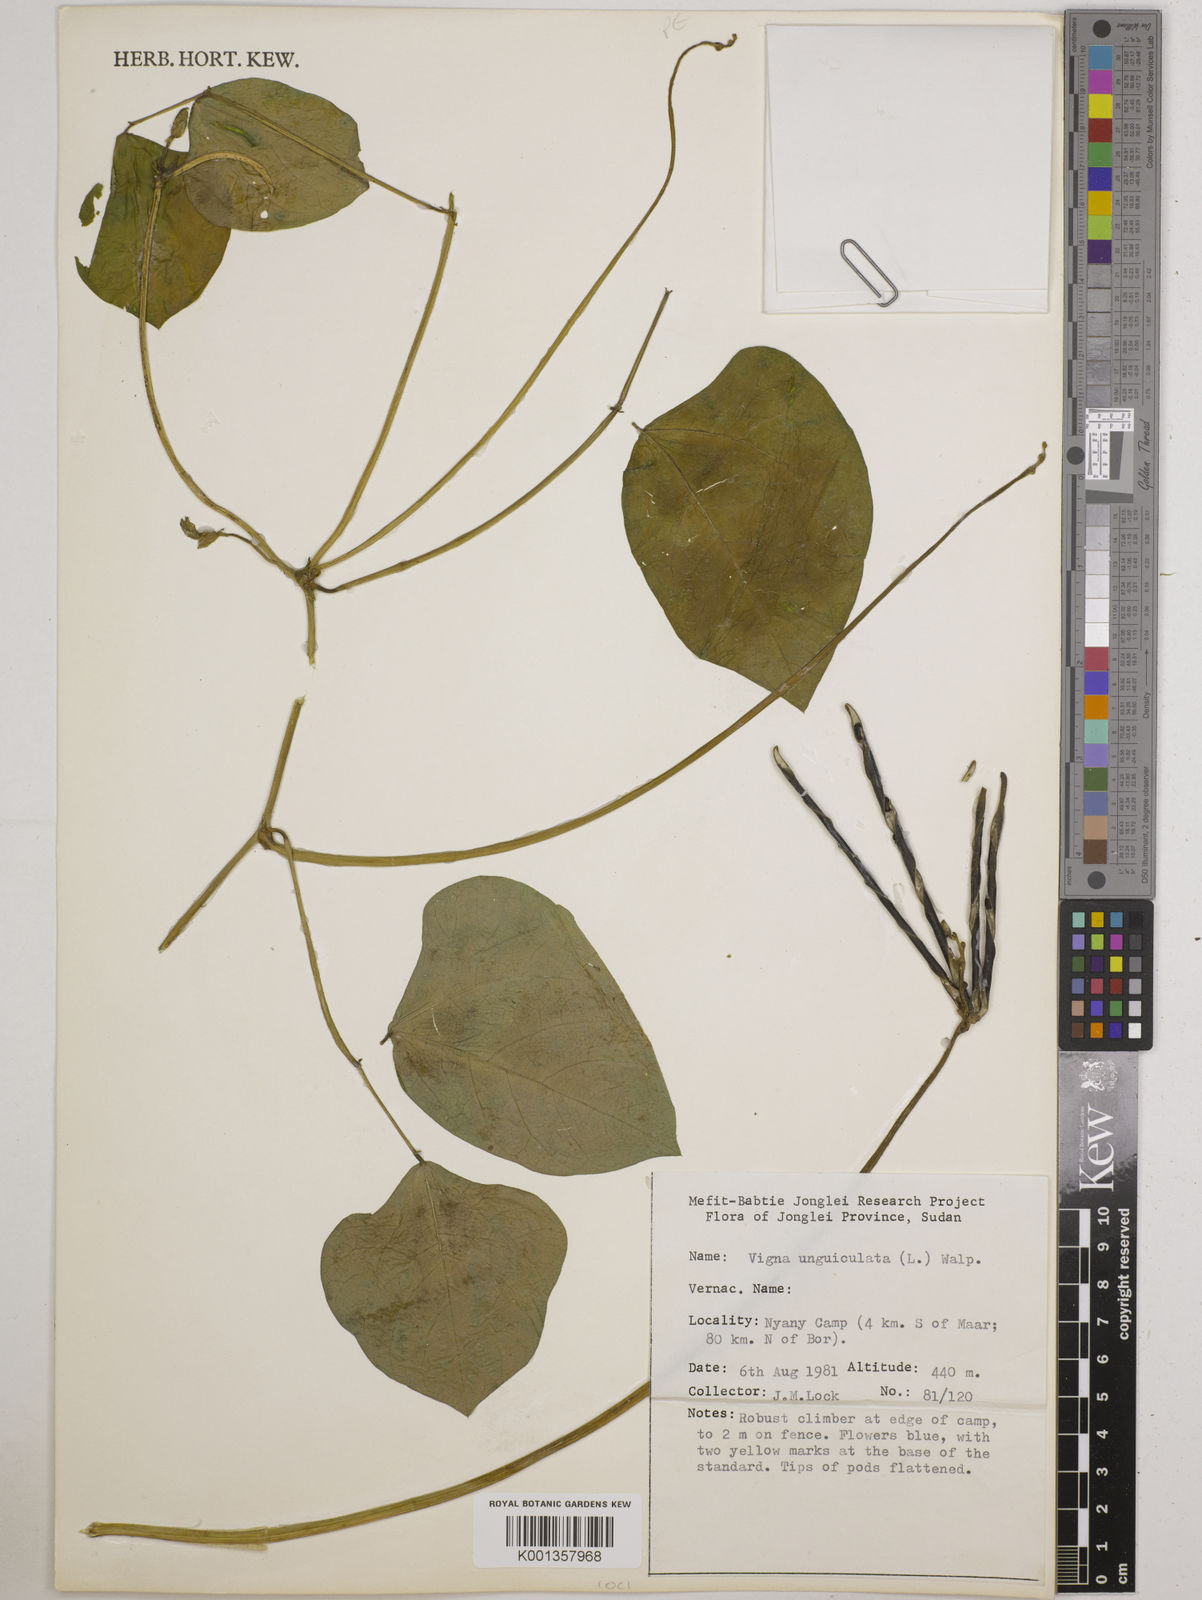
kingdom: Plantae
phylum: Tracheophyta
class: Magnoliopsida
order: Fabales
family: Fabaceae
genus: Vigna
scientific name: Vigna unguiculata
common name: Cowpea
